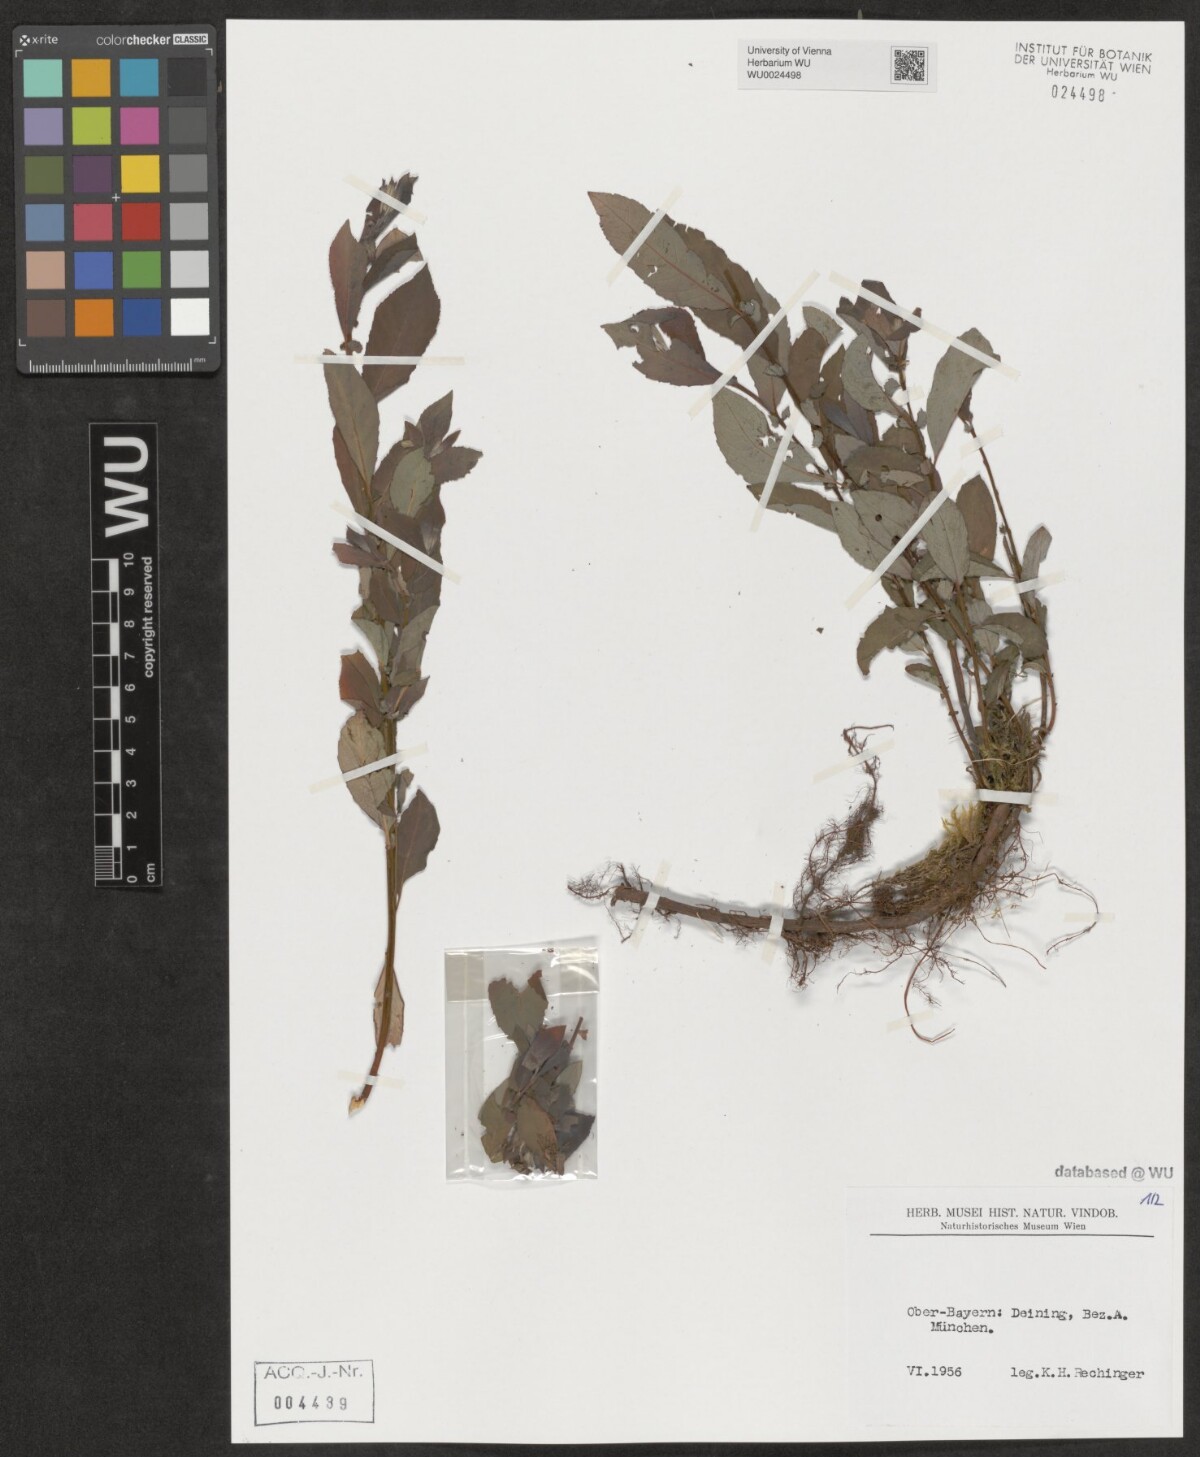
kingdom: Plantae
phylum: Tracheophyta
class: Magnoliopsida
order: Malpighiales
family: Salicaceae
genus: Salix
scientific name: Salix
